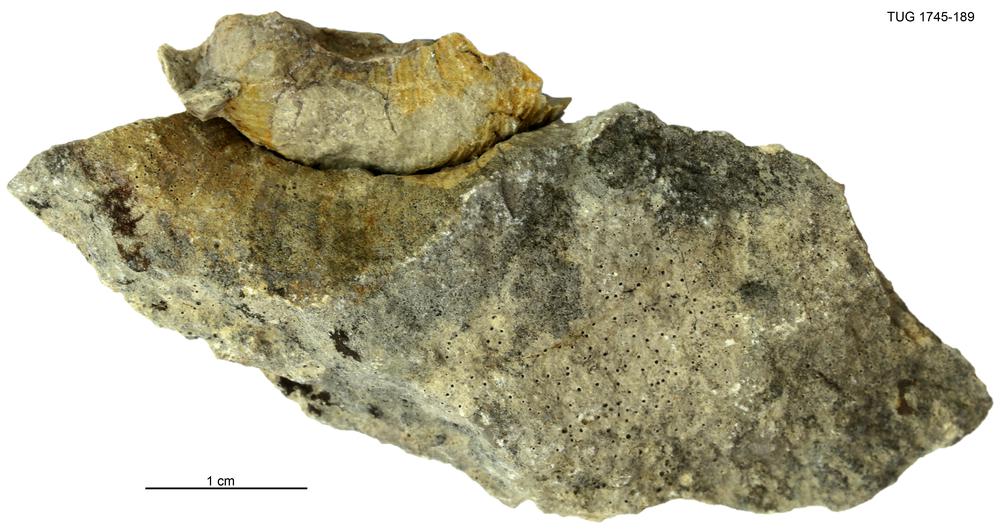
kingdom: Animalia
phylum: Mollusca
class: Cephalopoda
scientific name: Cephalopoda
